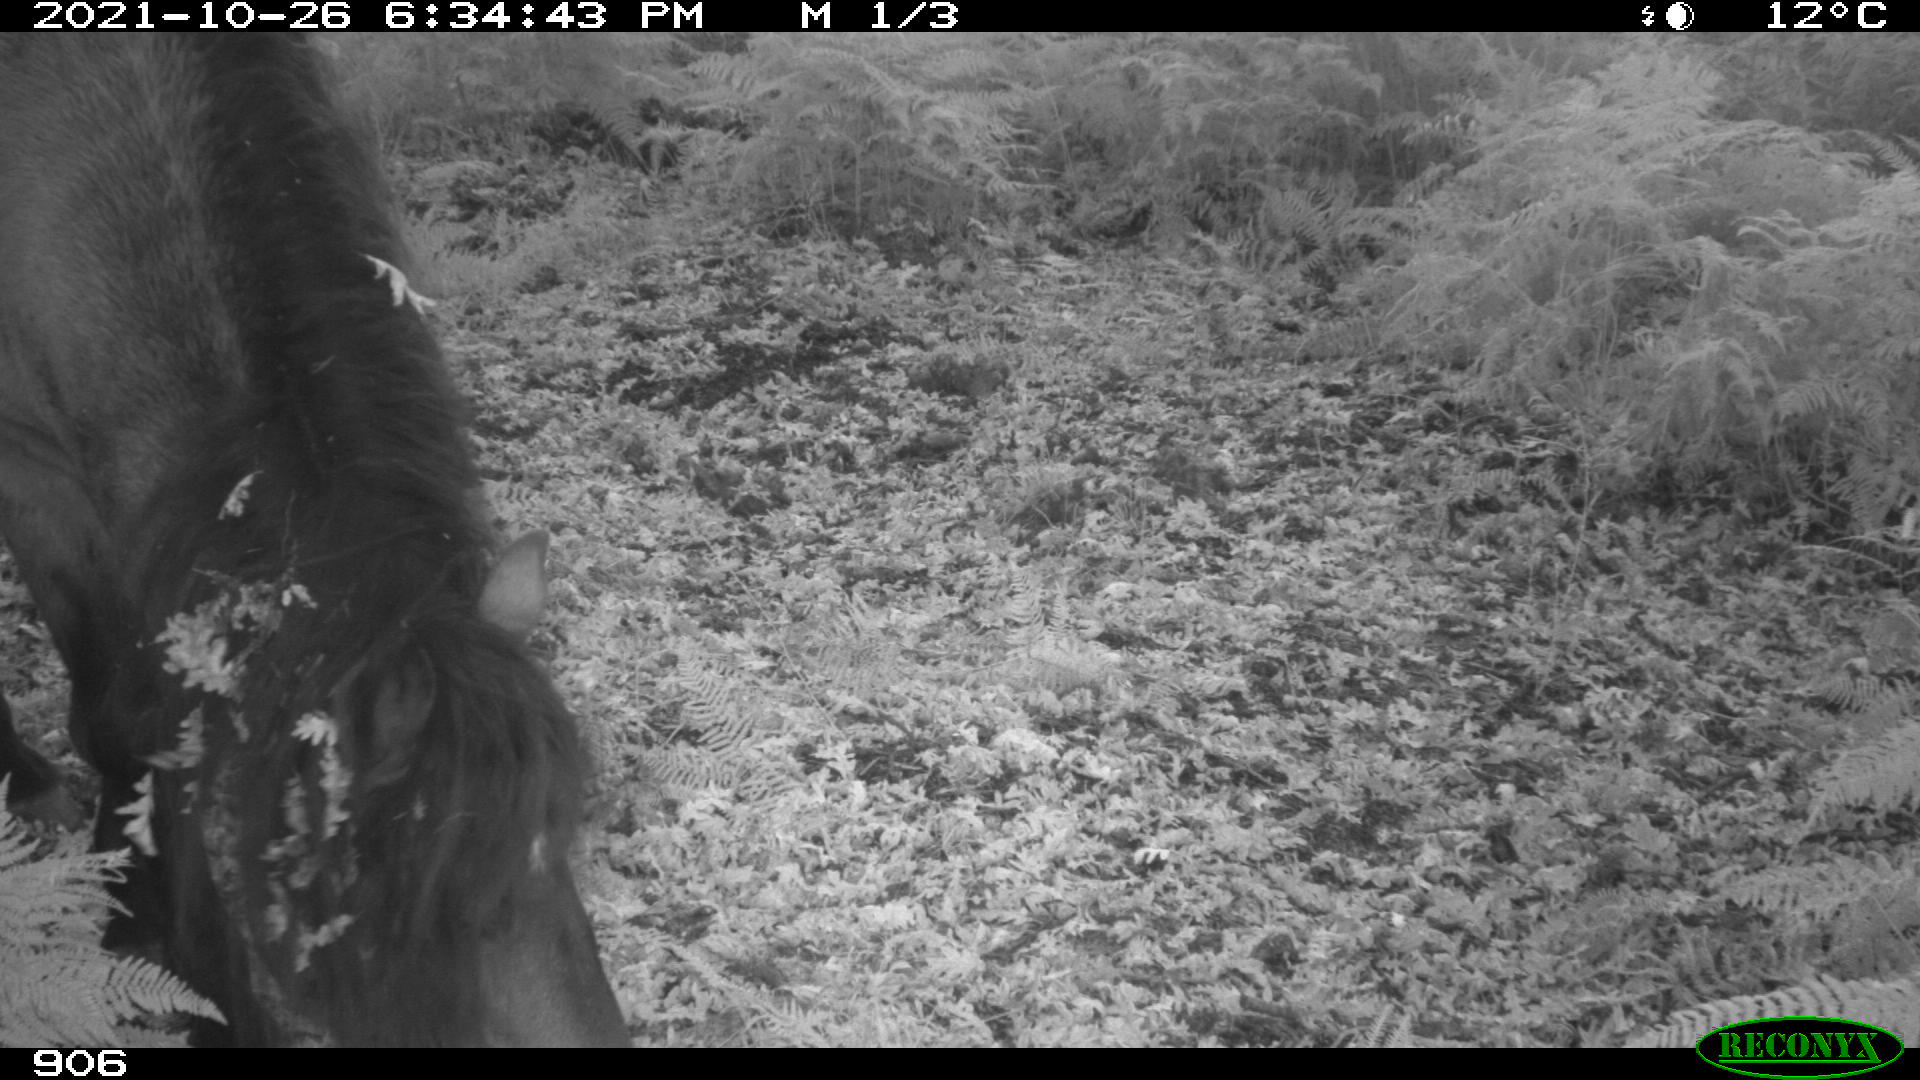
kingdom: Animalia
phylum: Chordata
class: Mammalia
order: Perissodactyla
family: Equidae
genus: Equus
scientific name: Equus caballus
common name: Horse
